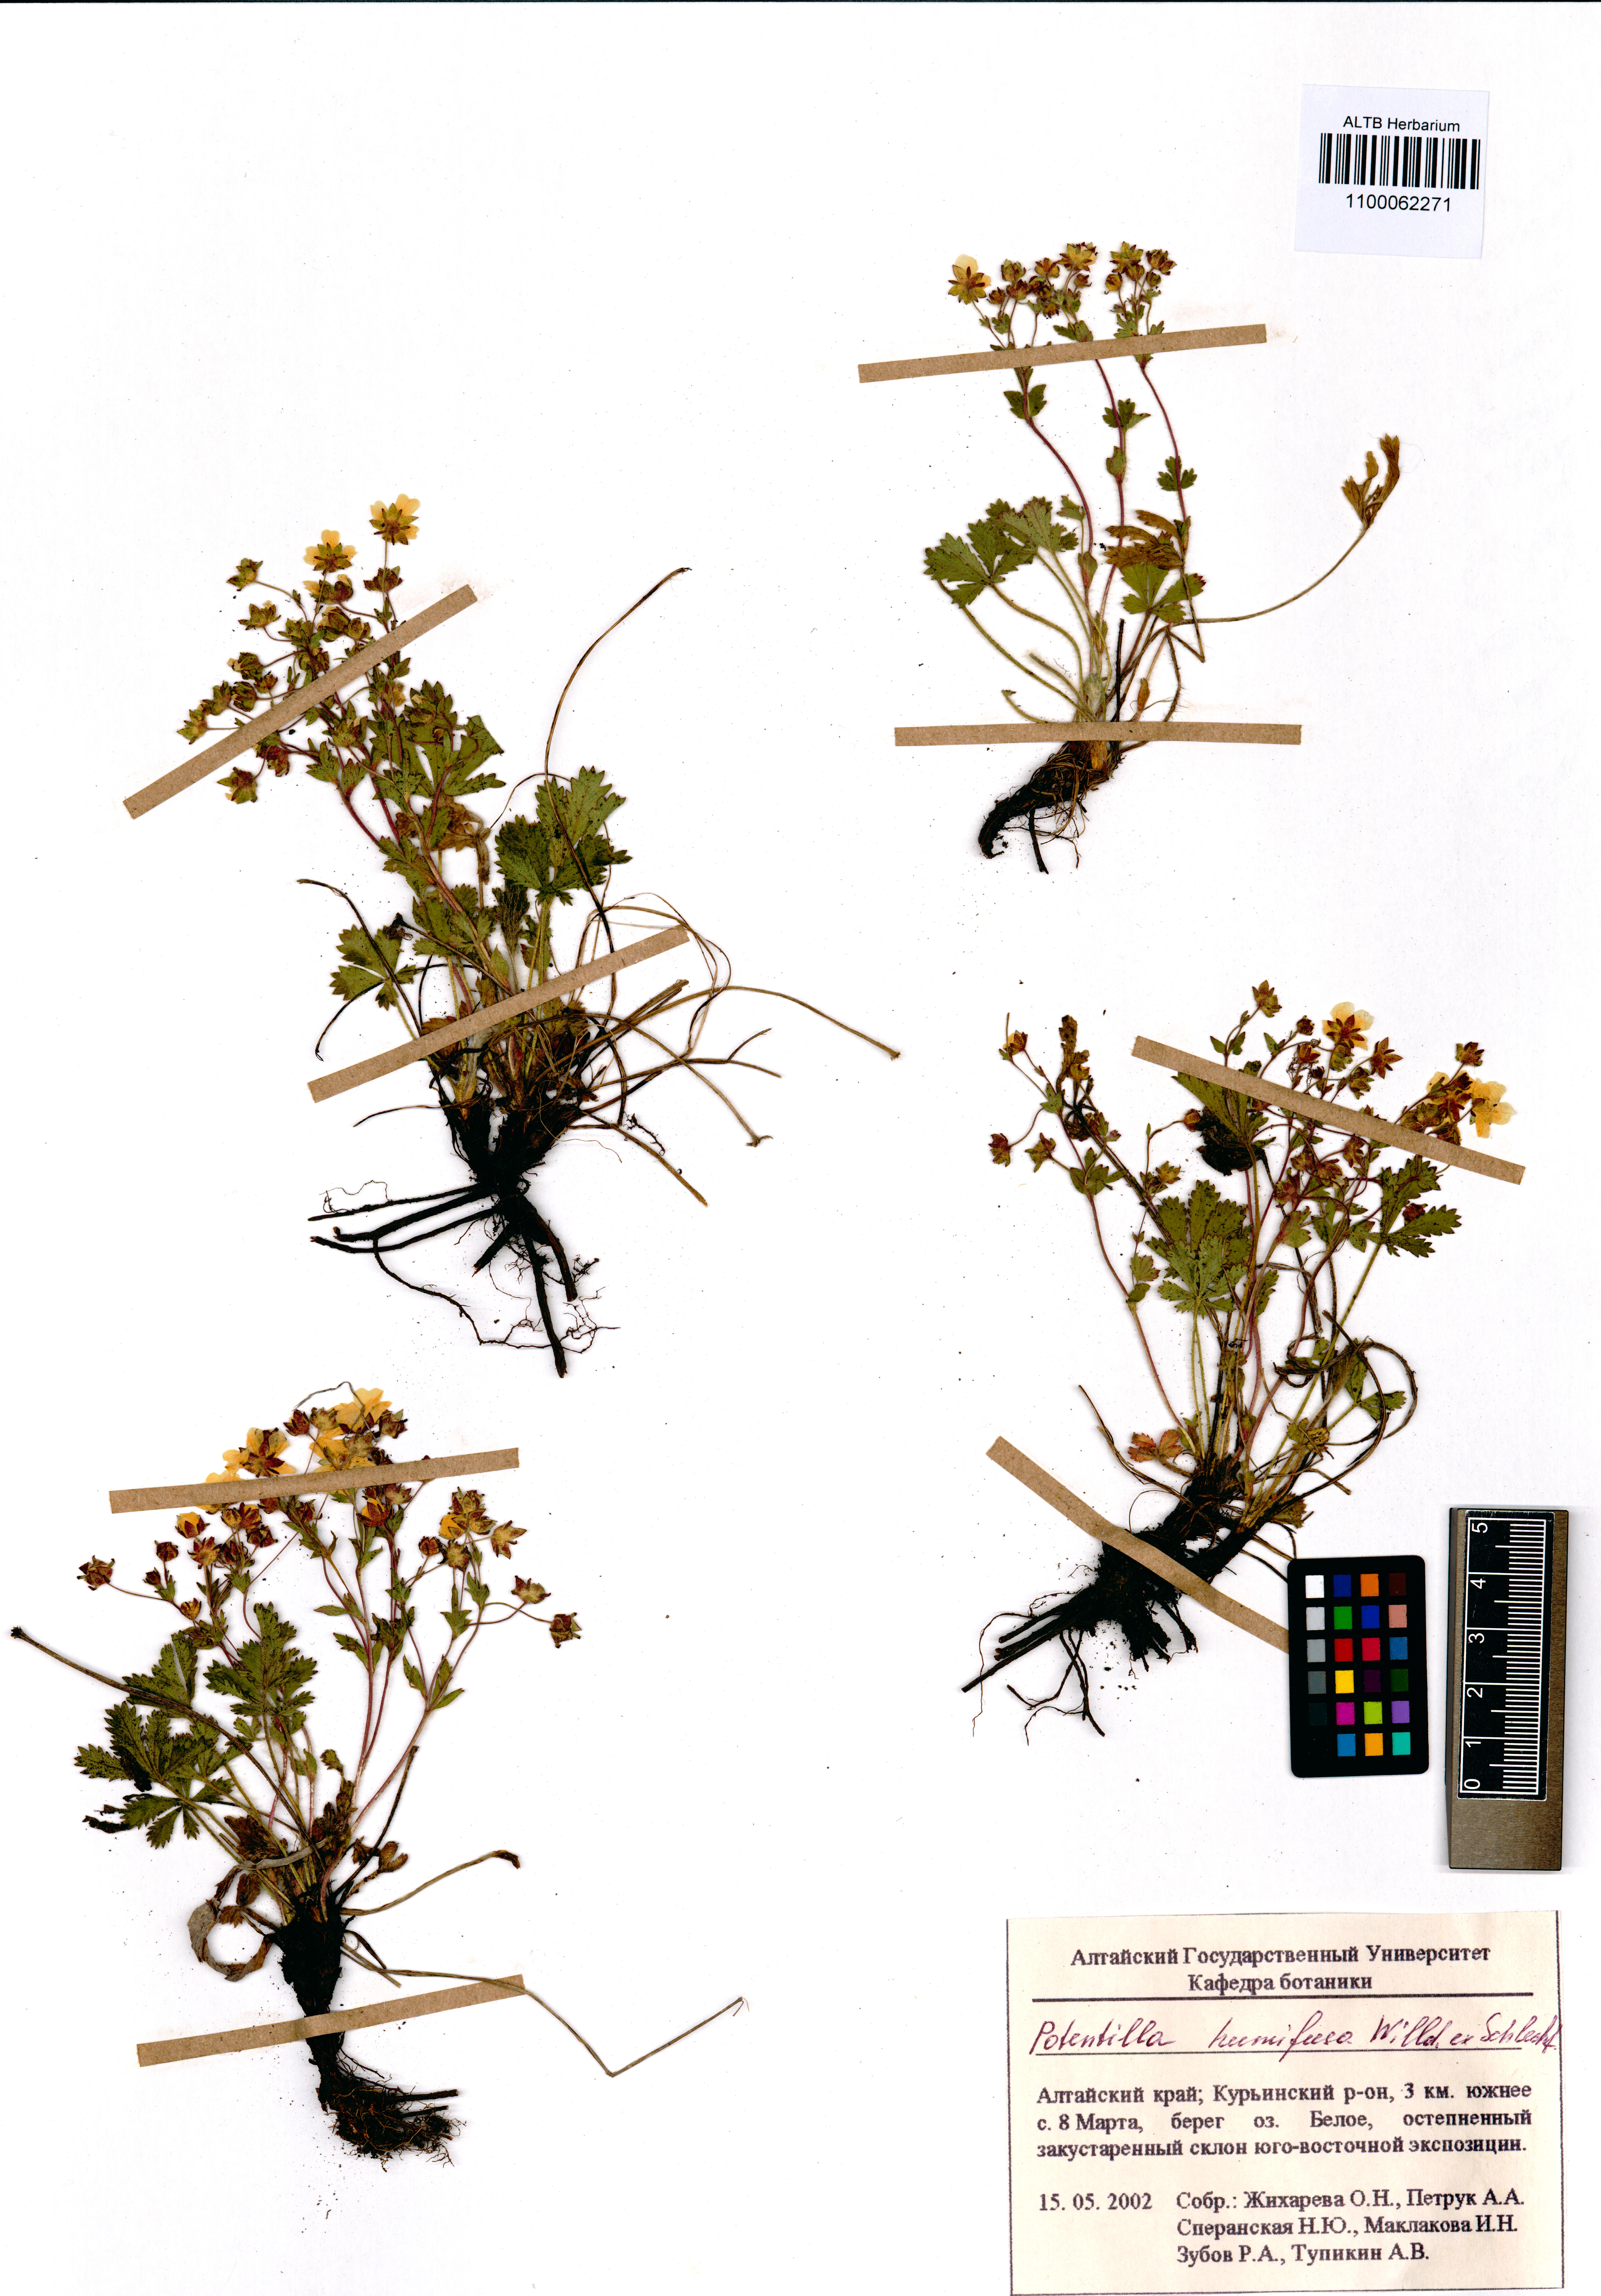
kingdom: Plantae
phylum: Tracheophyta
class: Magnoliopsida
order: Rosales
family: Rosaceae
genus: Potentilla
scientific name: Potentilla humifusa
